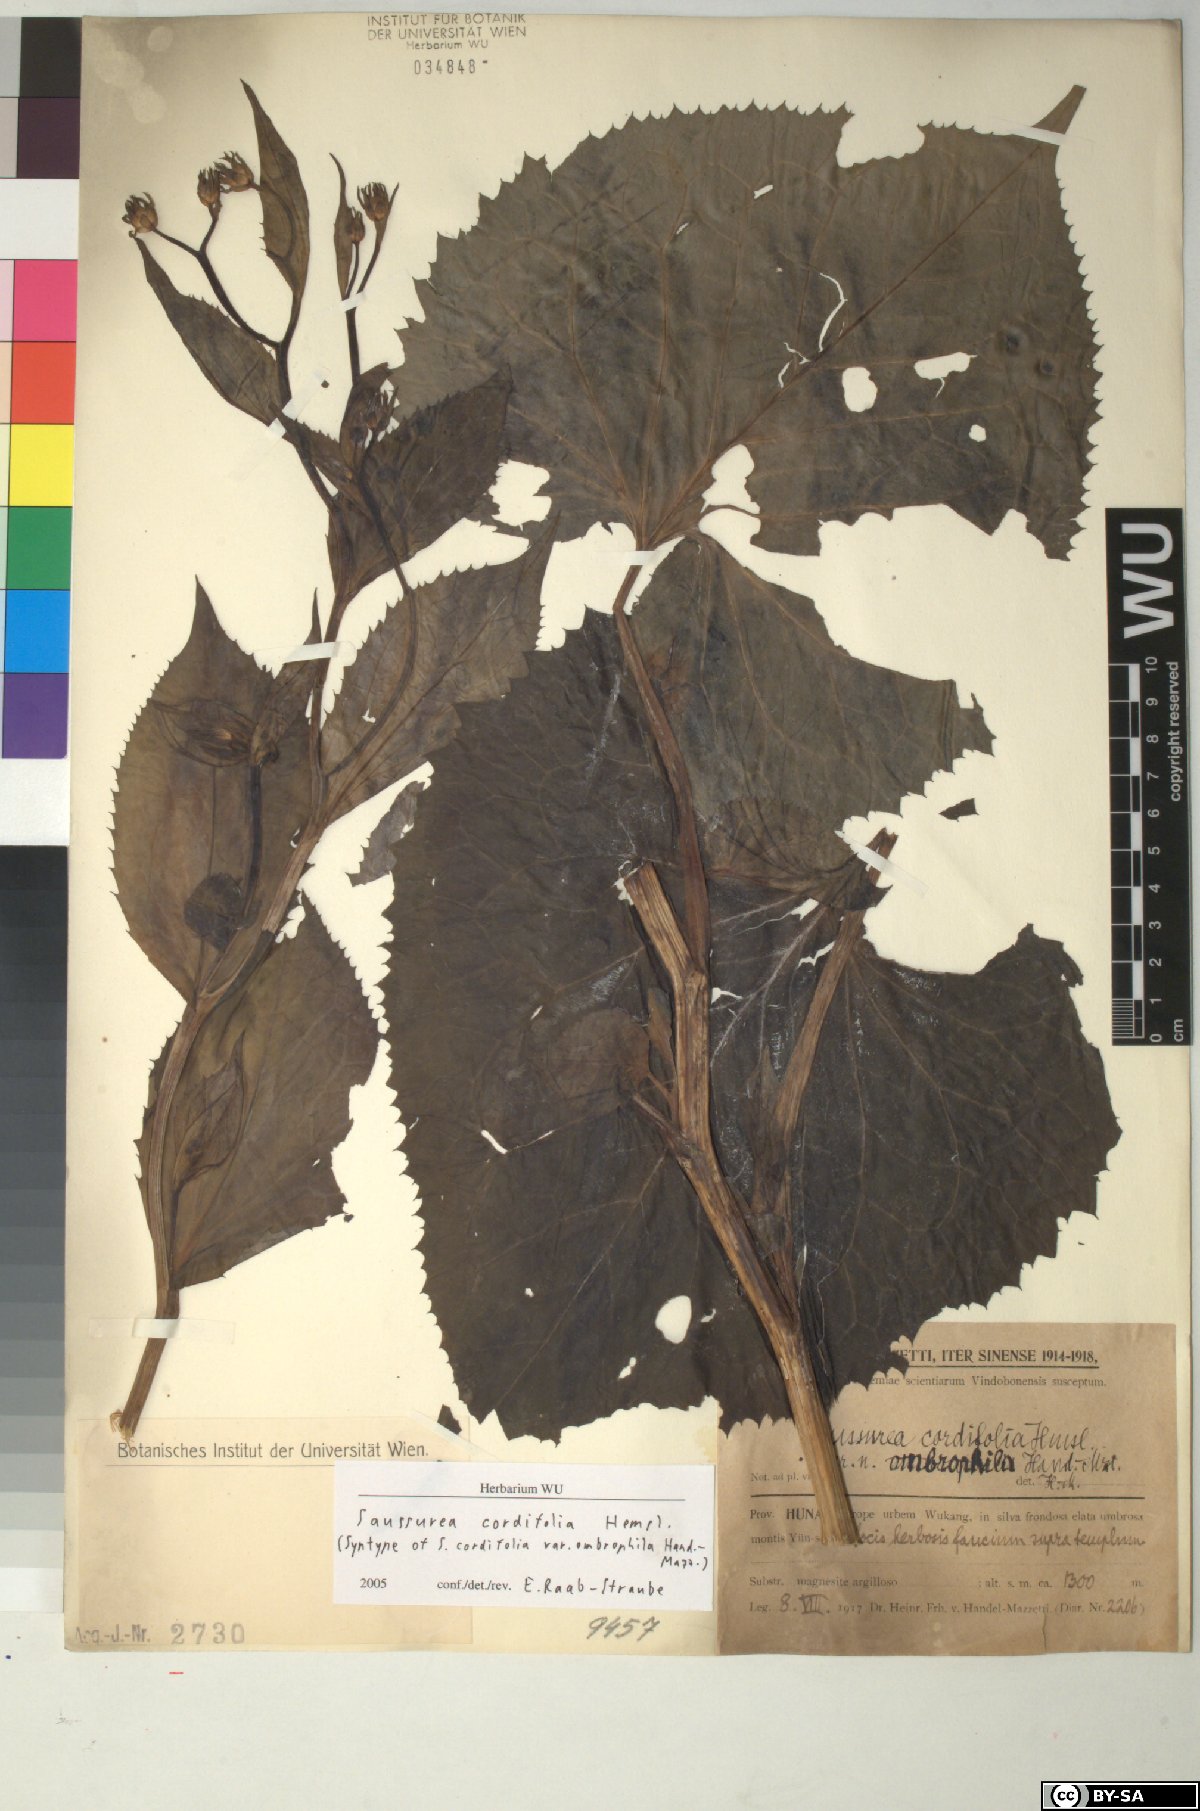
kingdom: Plantae
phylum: Tracheophyta
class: Magnoliopsida
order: Asterales
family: Asteraceae
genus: Saussurea
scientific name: Saussurea cordifolia
